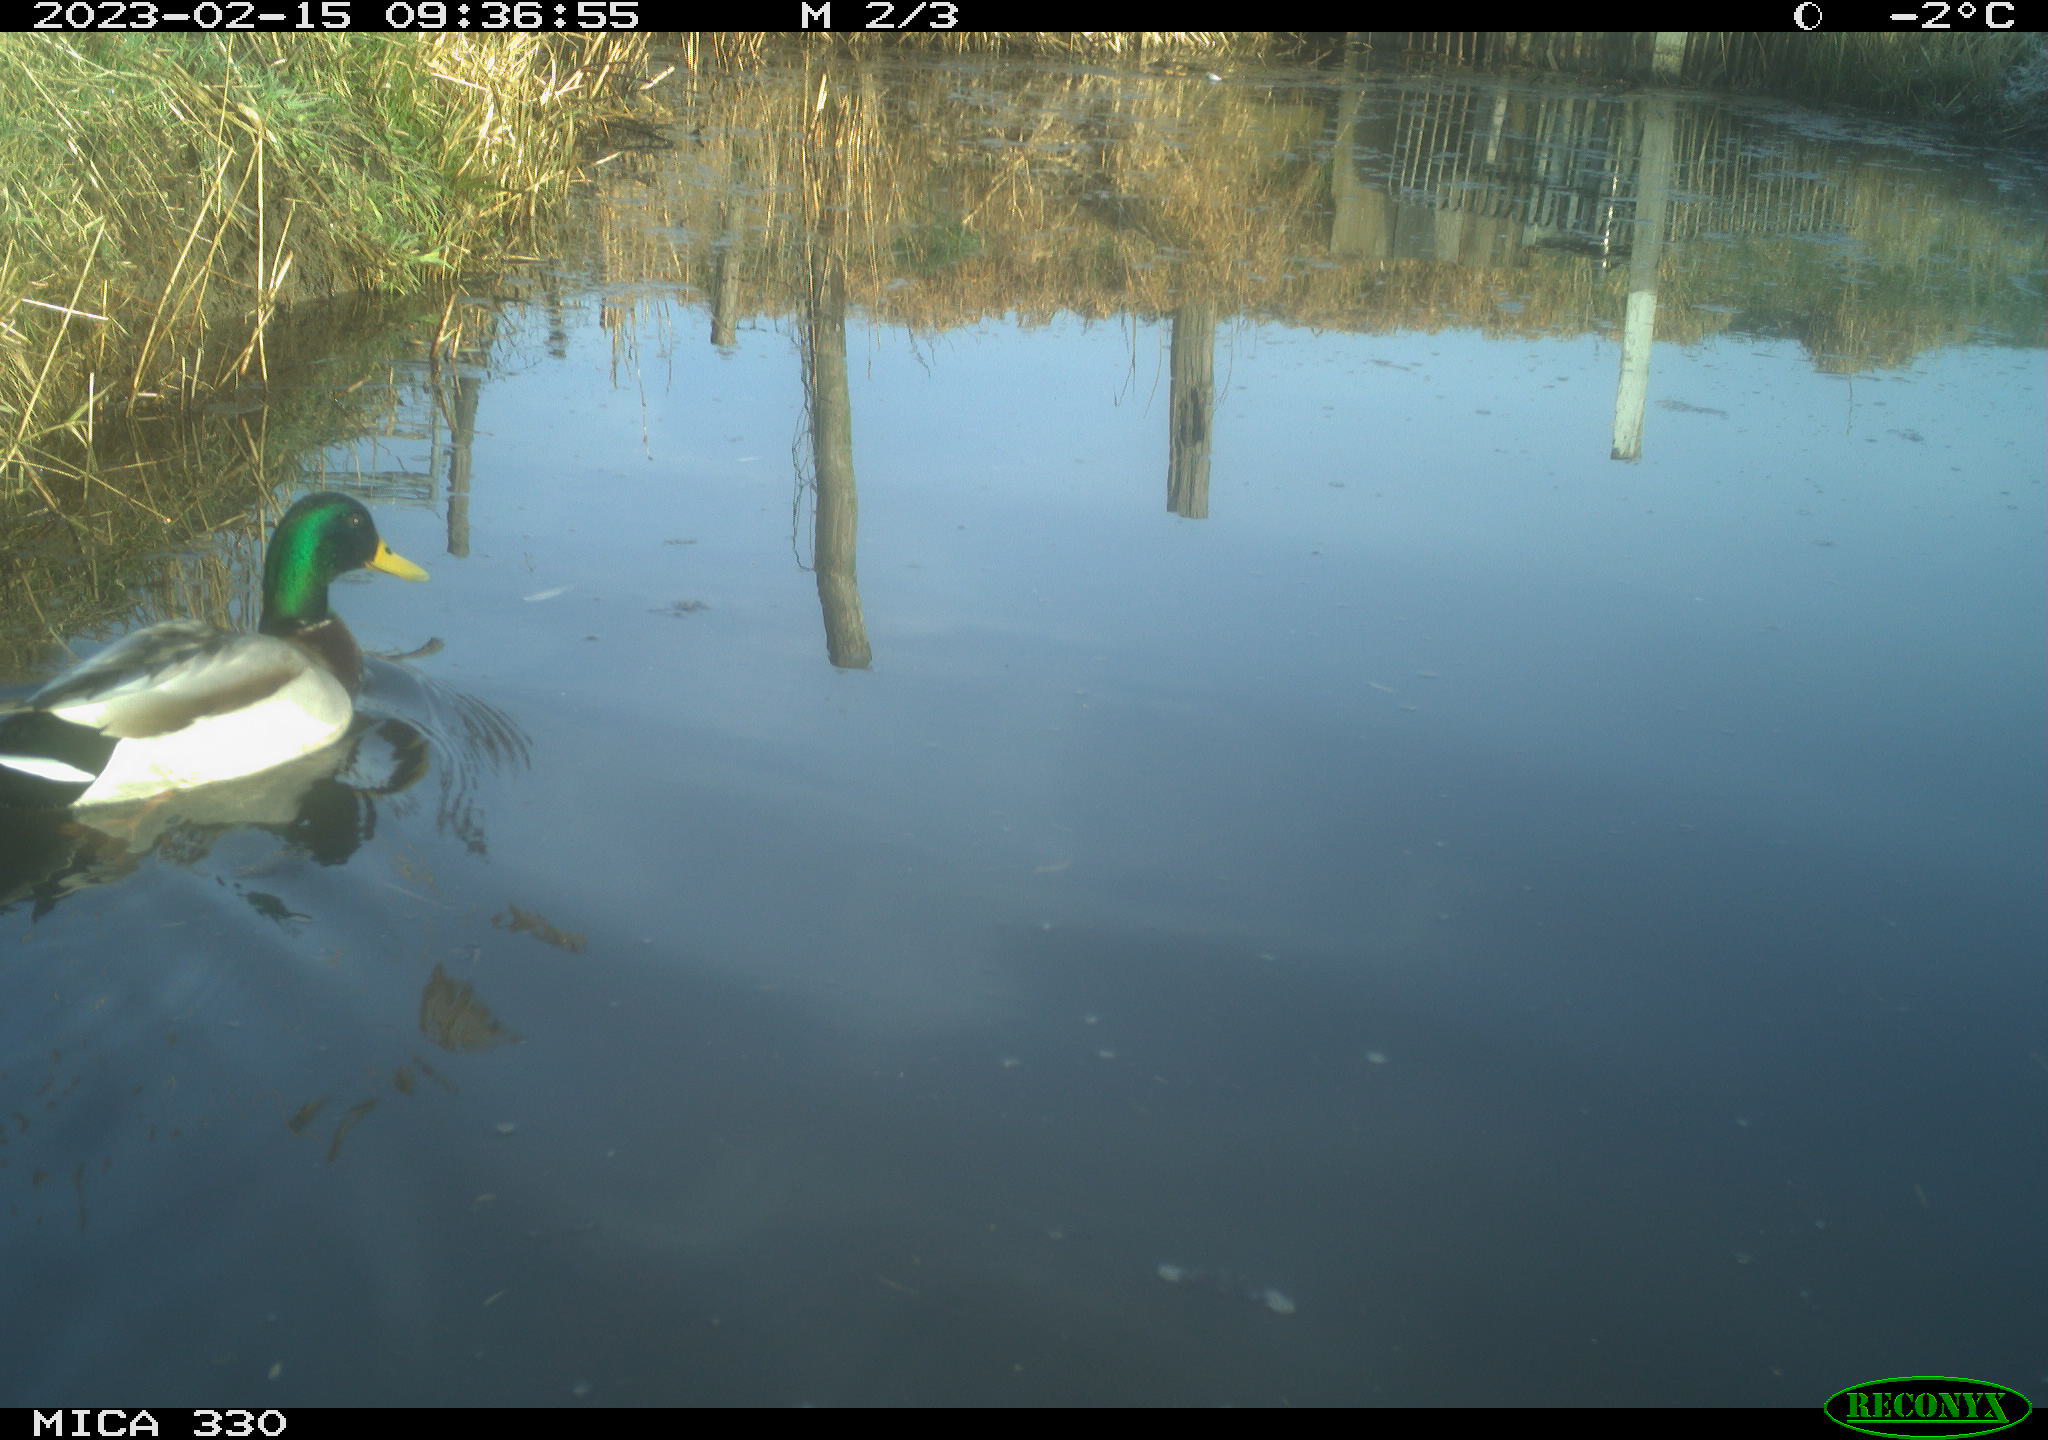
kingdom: Animalia
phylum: Chordata
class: Aves
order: Anseriformes
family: Anatidae
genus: Anas
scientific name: Anas
